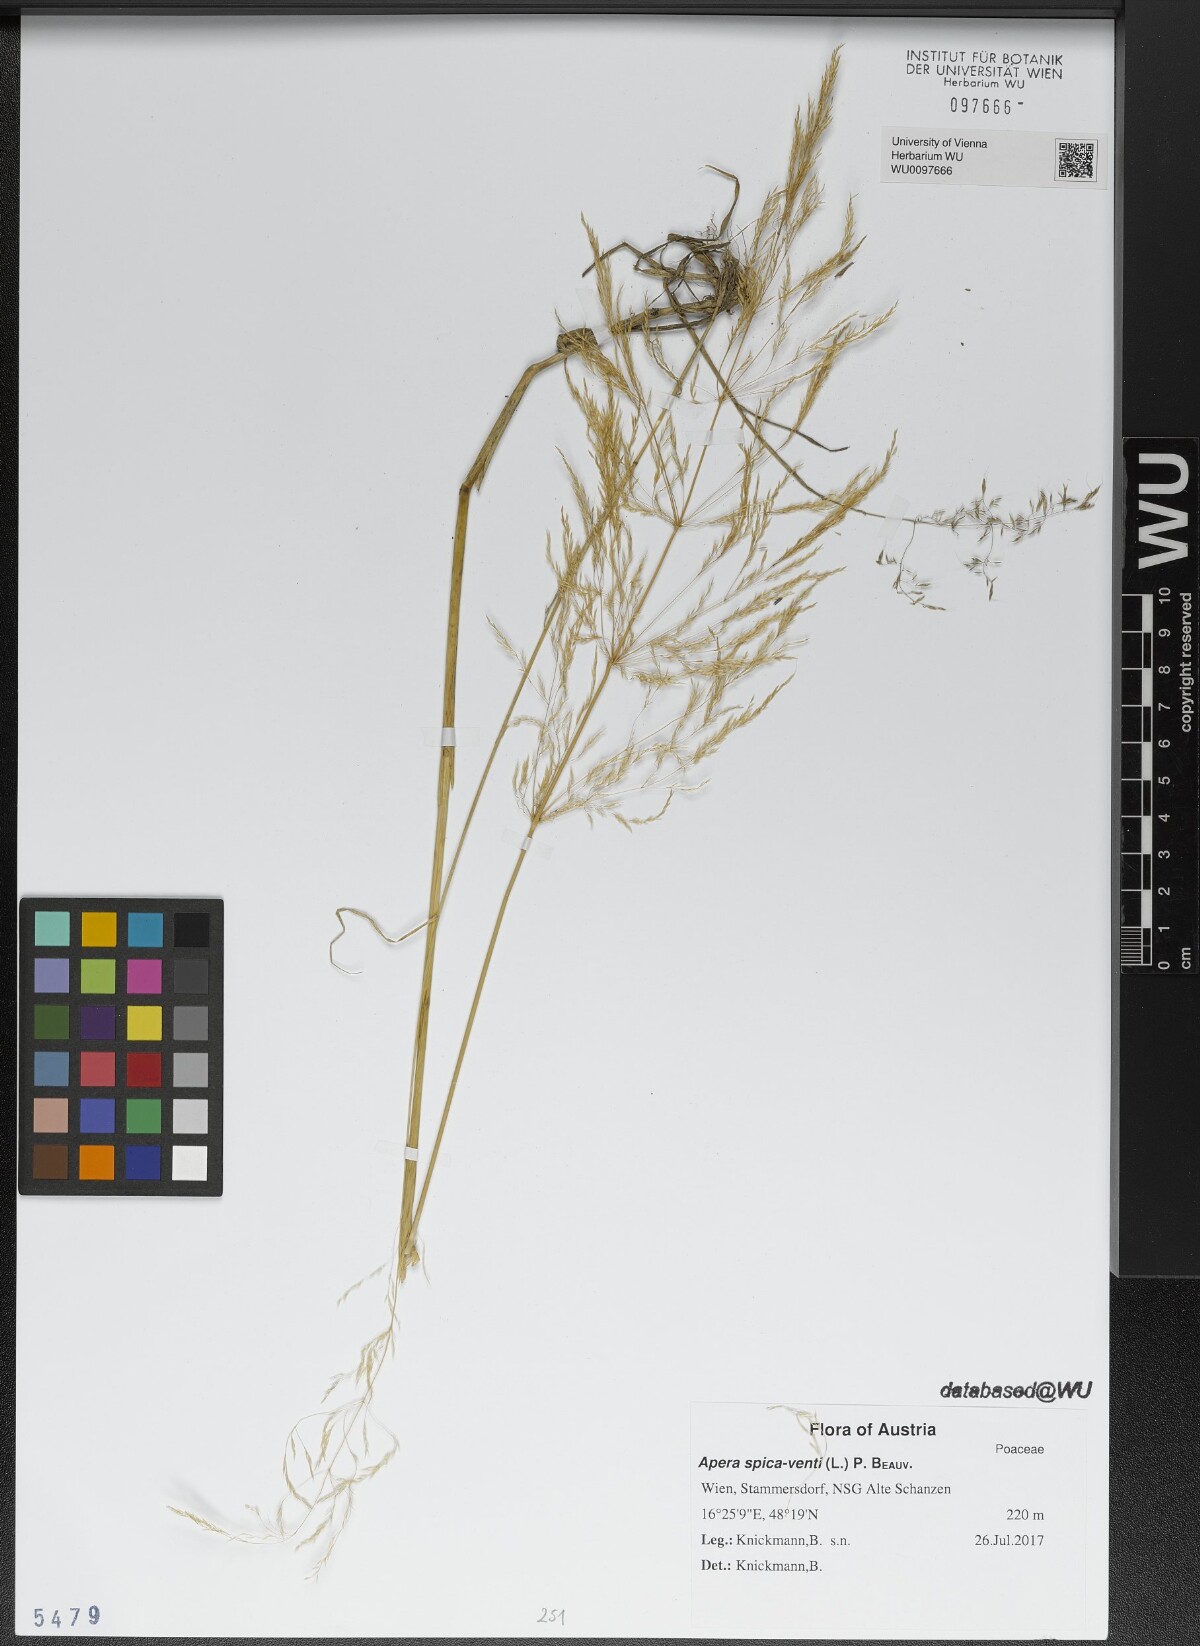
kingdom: Plantae
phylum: Tracheophyta
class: Liliopsida
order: Poales
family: Poaceae
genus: Apera
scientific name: Apera spica-venti
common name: Loose silky-bent
